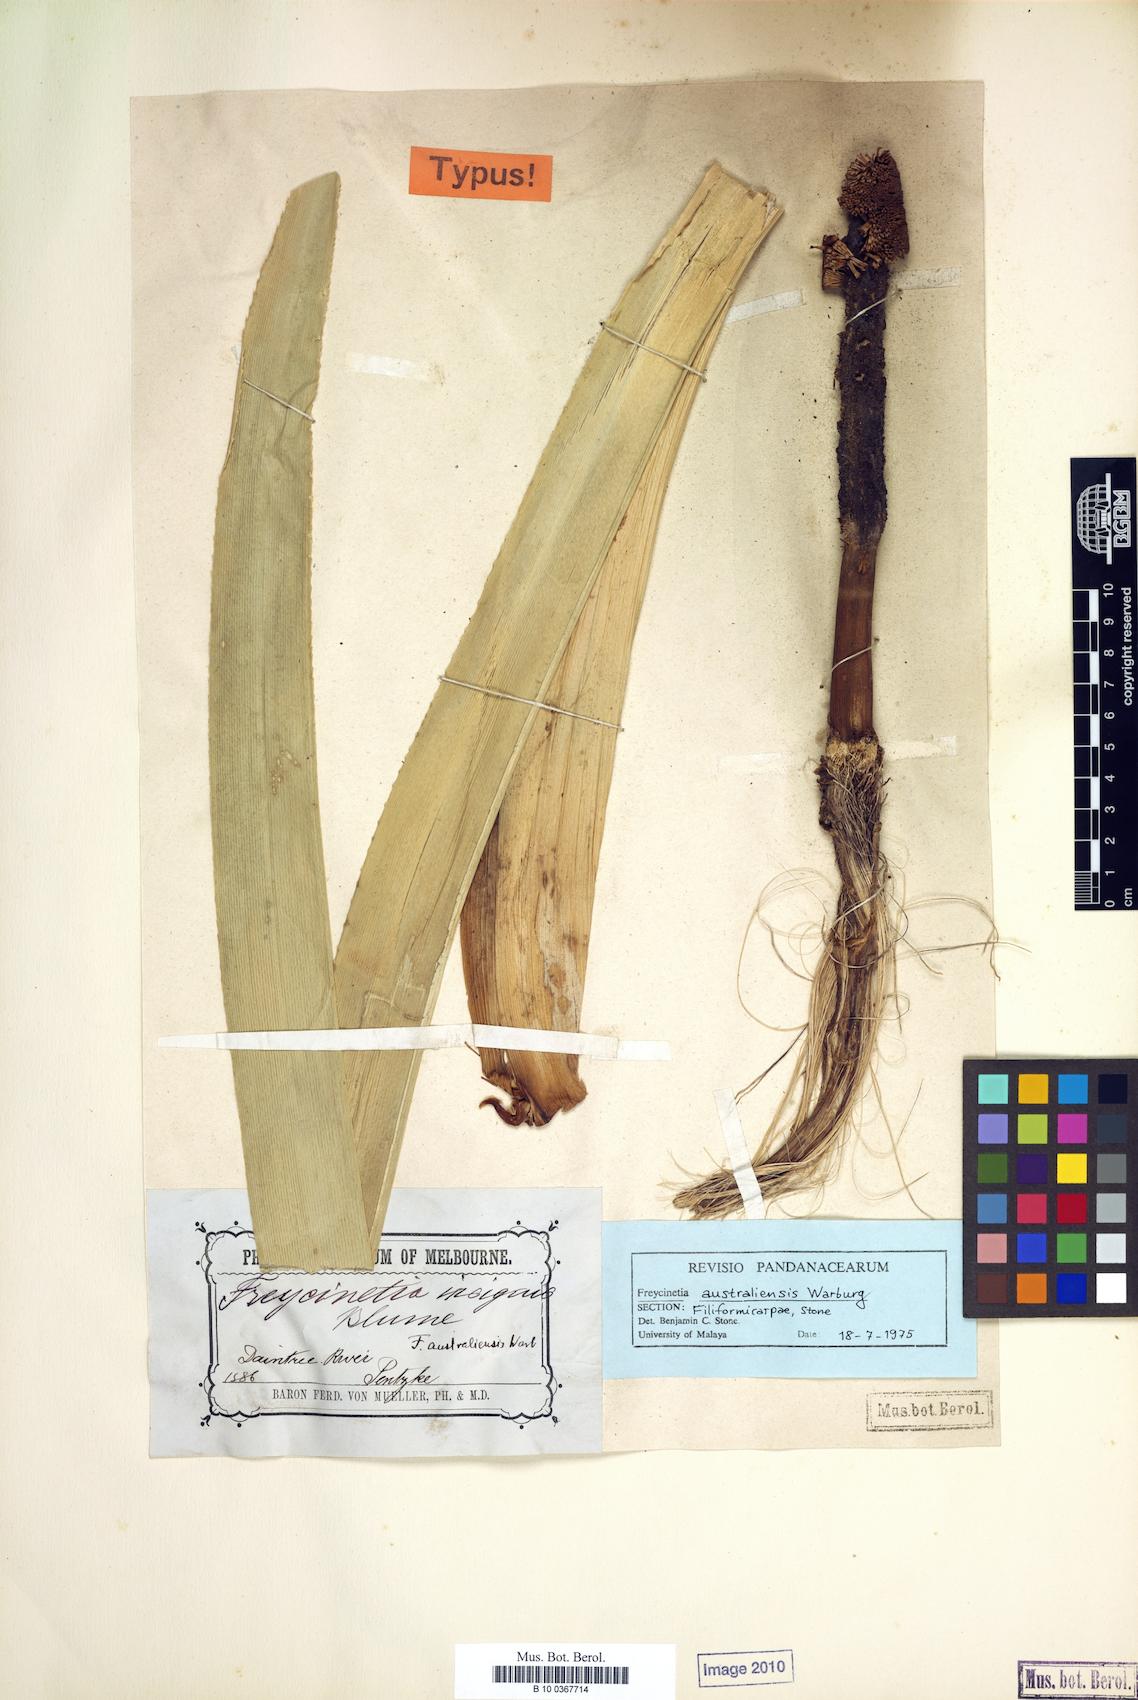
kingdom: Plantae
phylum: Tracheophyta
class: Liliopsida
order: Pandanales
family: Pandanaceae
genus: Freycinetia
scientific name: Freycinetia marginata
